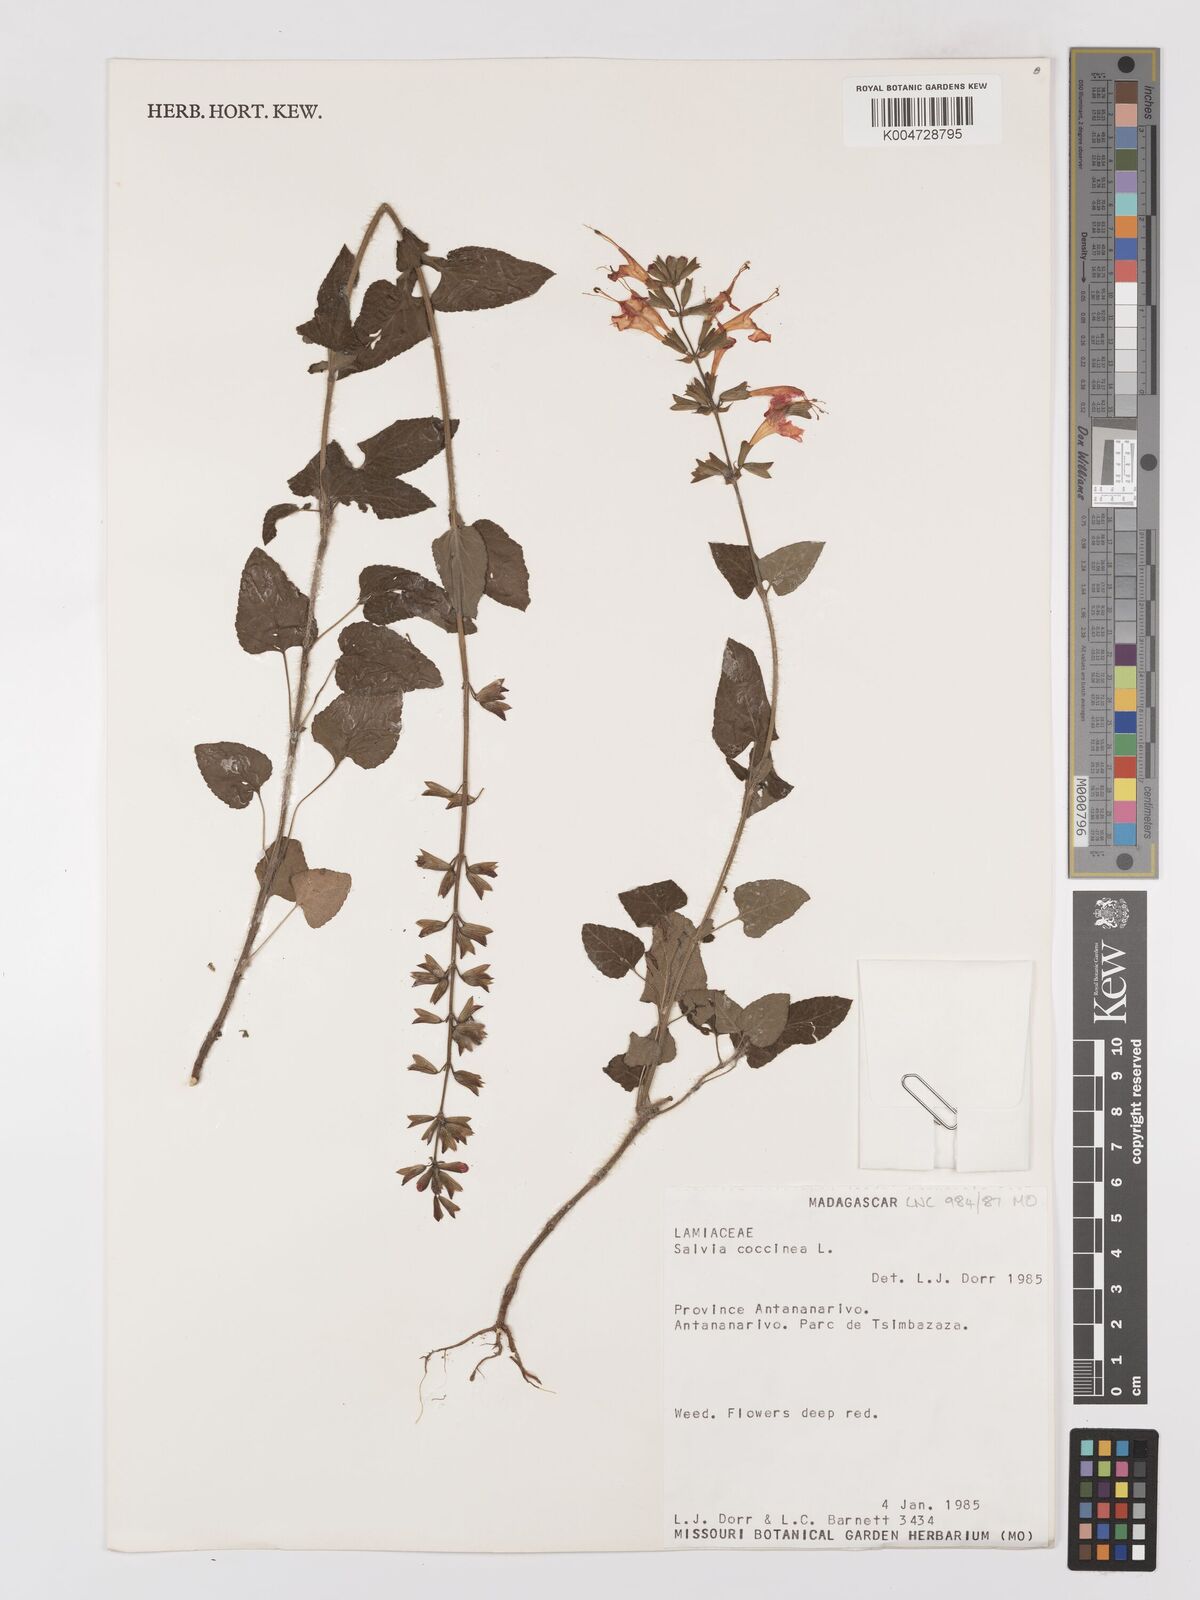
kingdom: Plantae
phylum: Tracheophyta
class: Magnoliopsida
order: Lamiales
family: Lamiaceae
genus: Salvia
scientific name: Salvia
